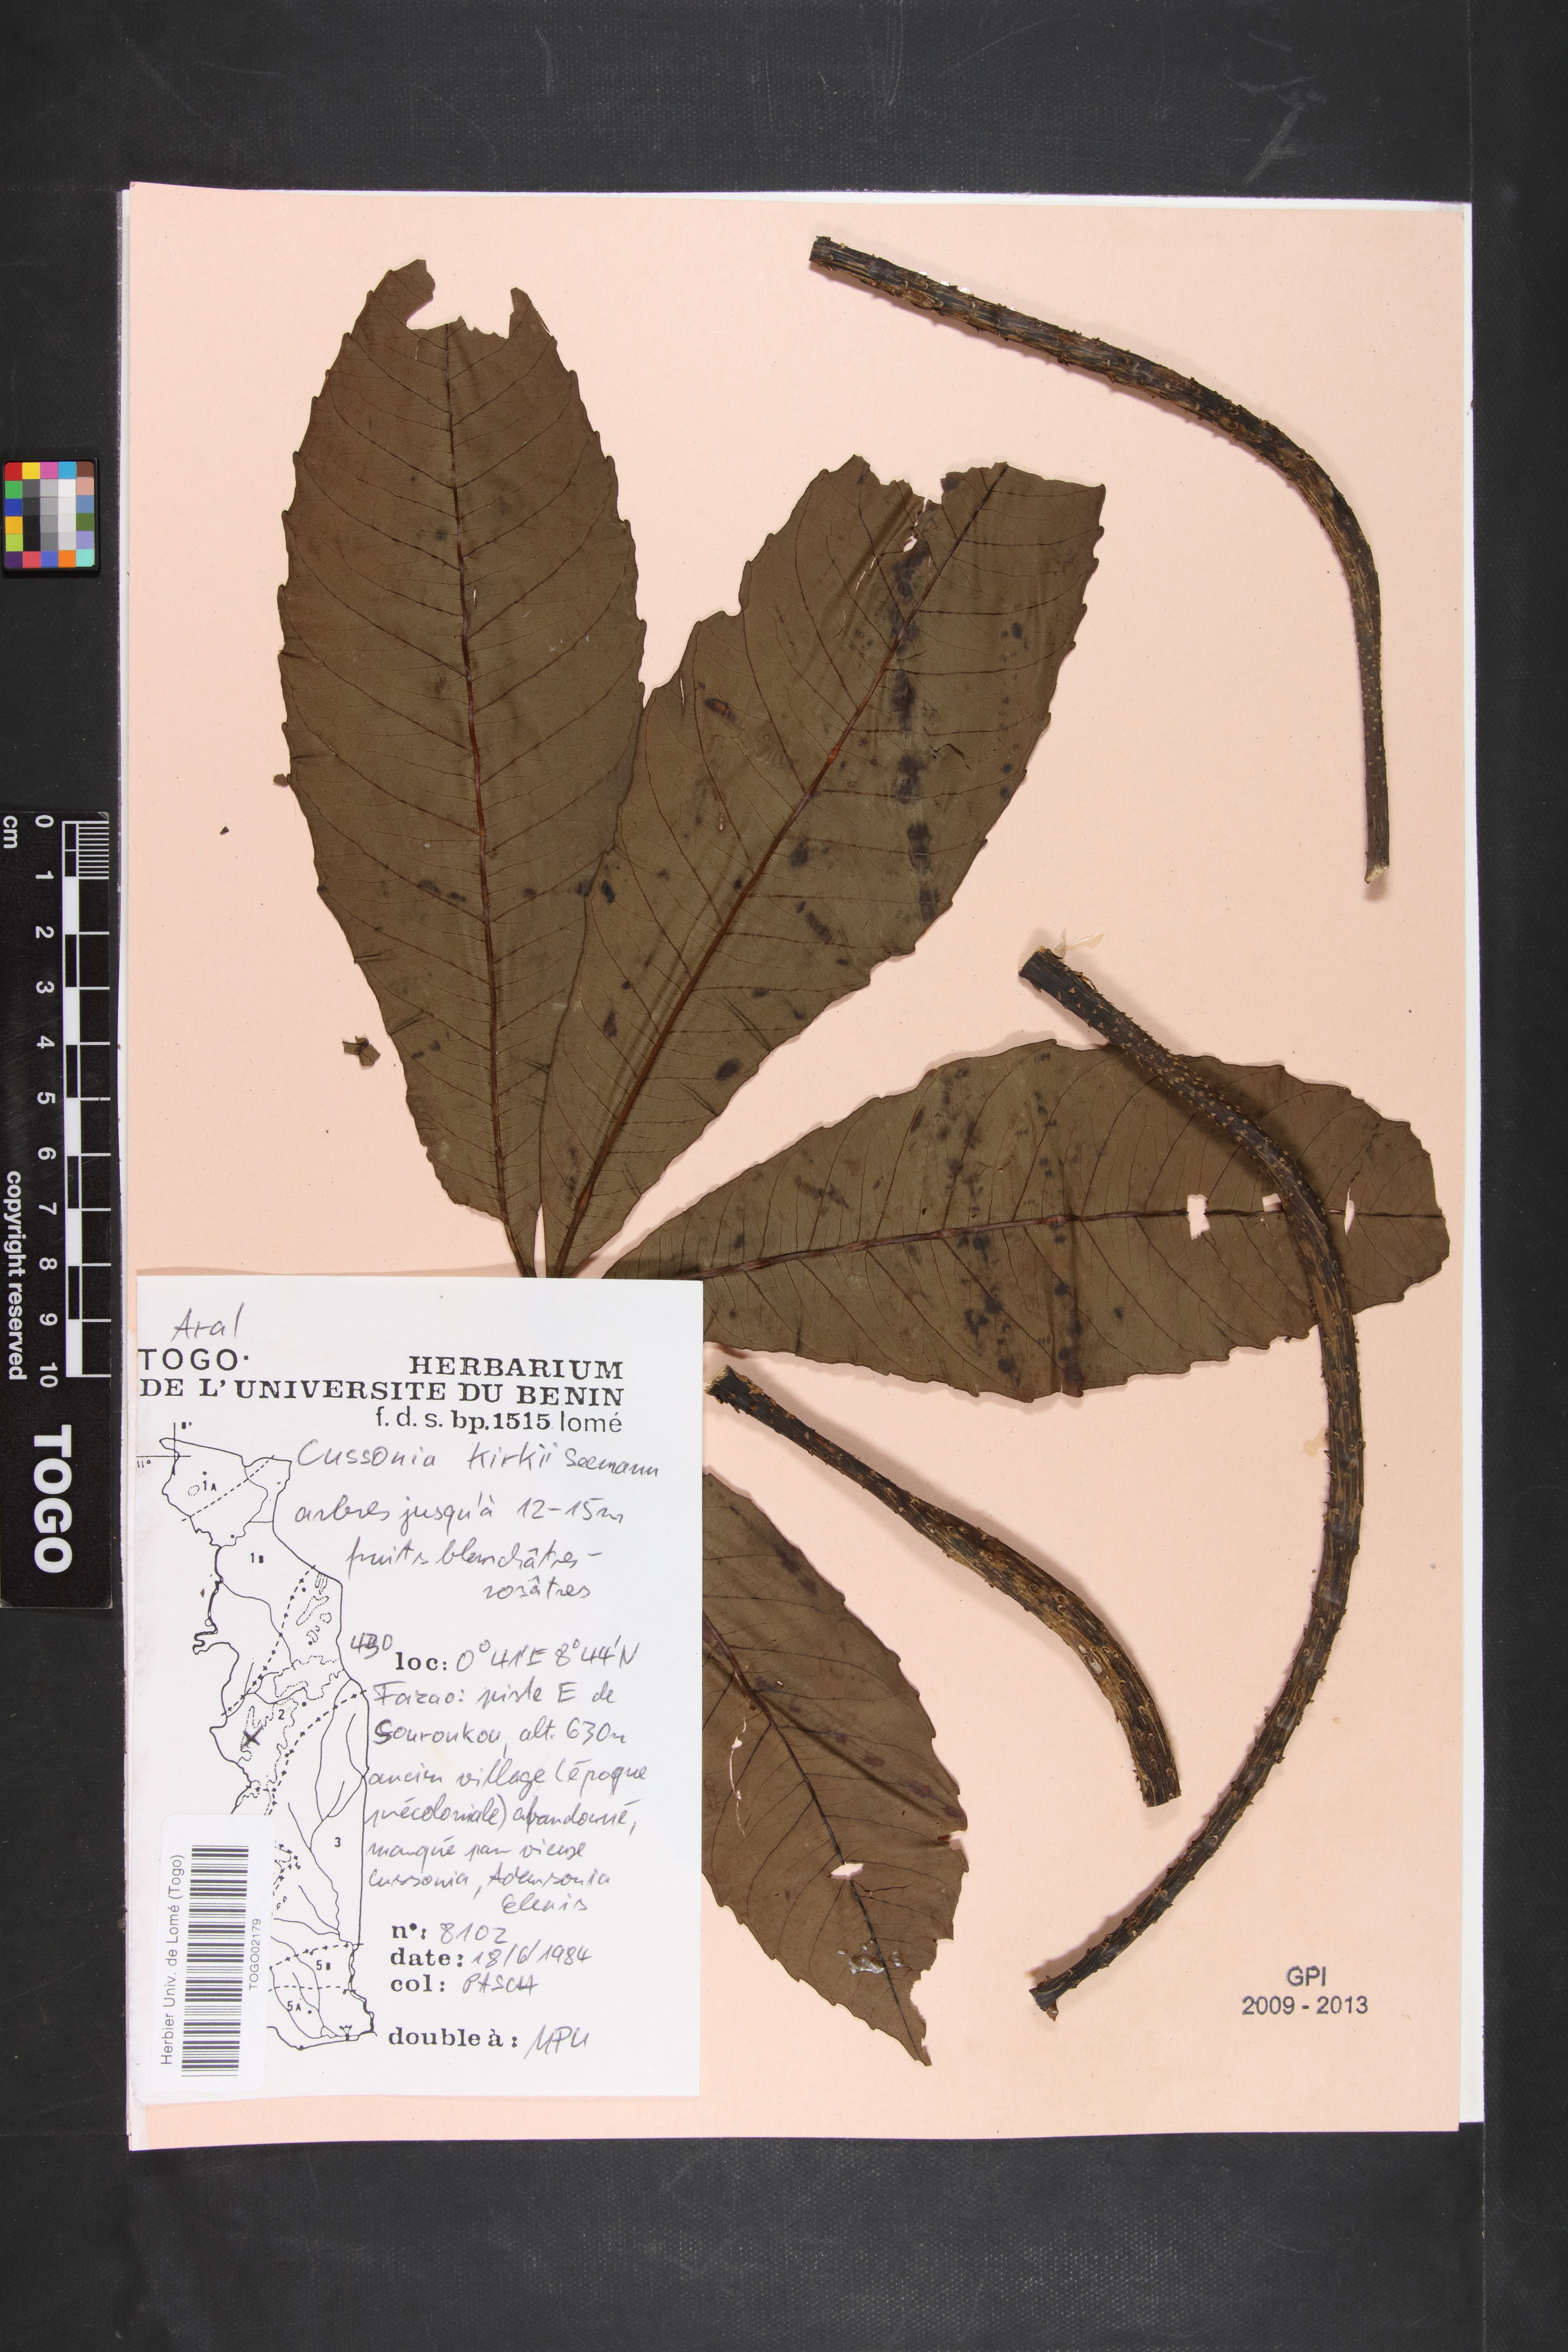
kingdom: Plantae
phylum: Tracheophyta
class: Magnoliopsida
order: Apiales
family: Araliaceae
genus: Cussonia
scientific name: Cussonia arborea
